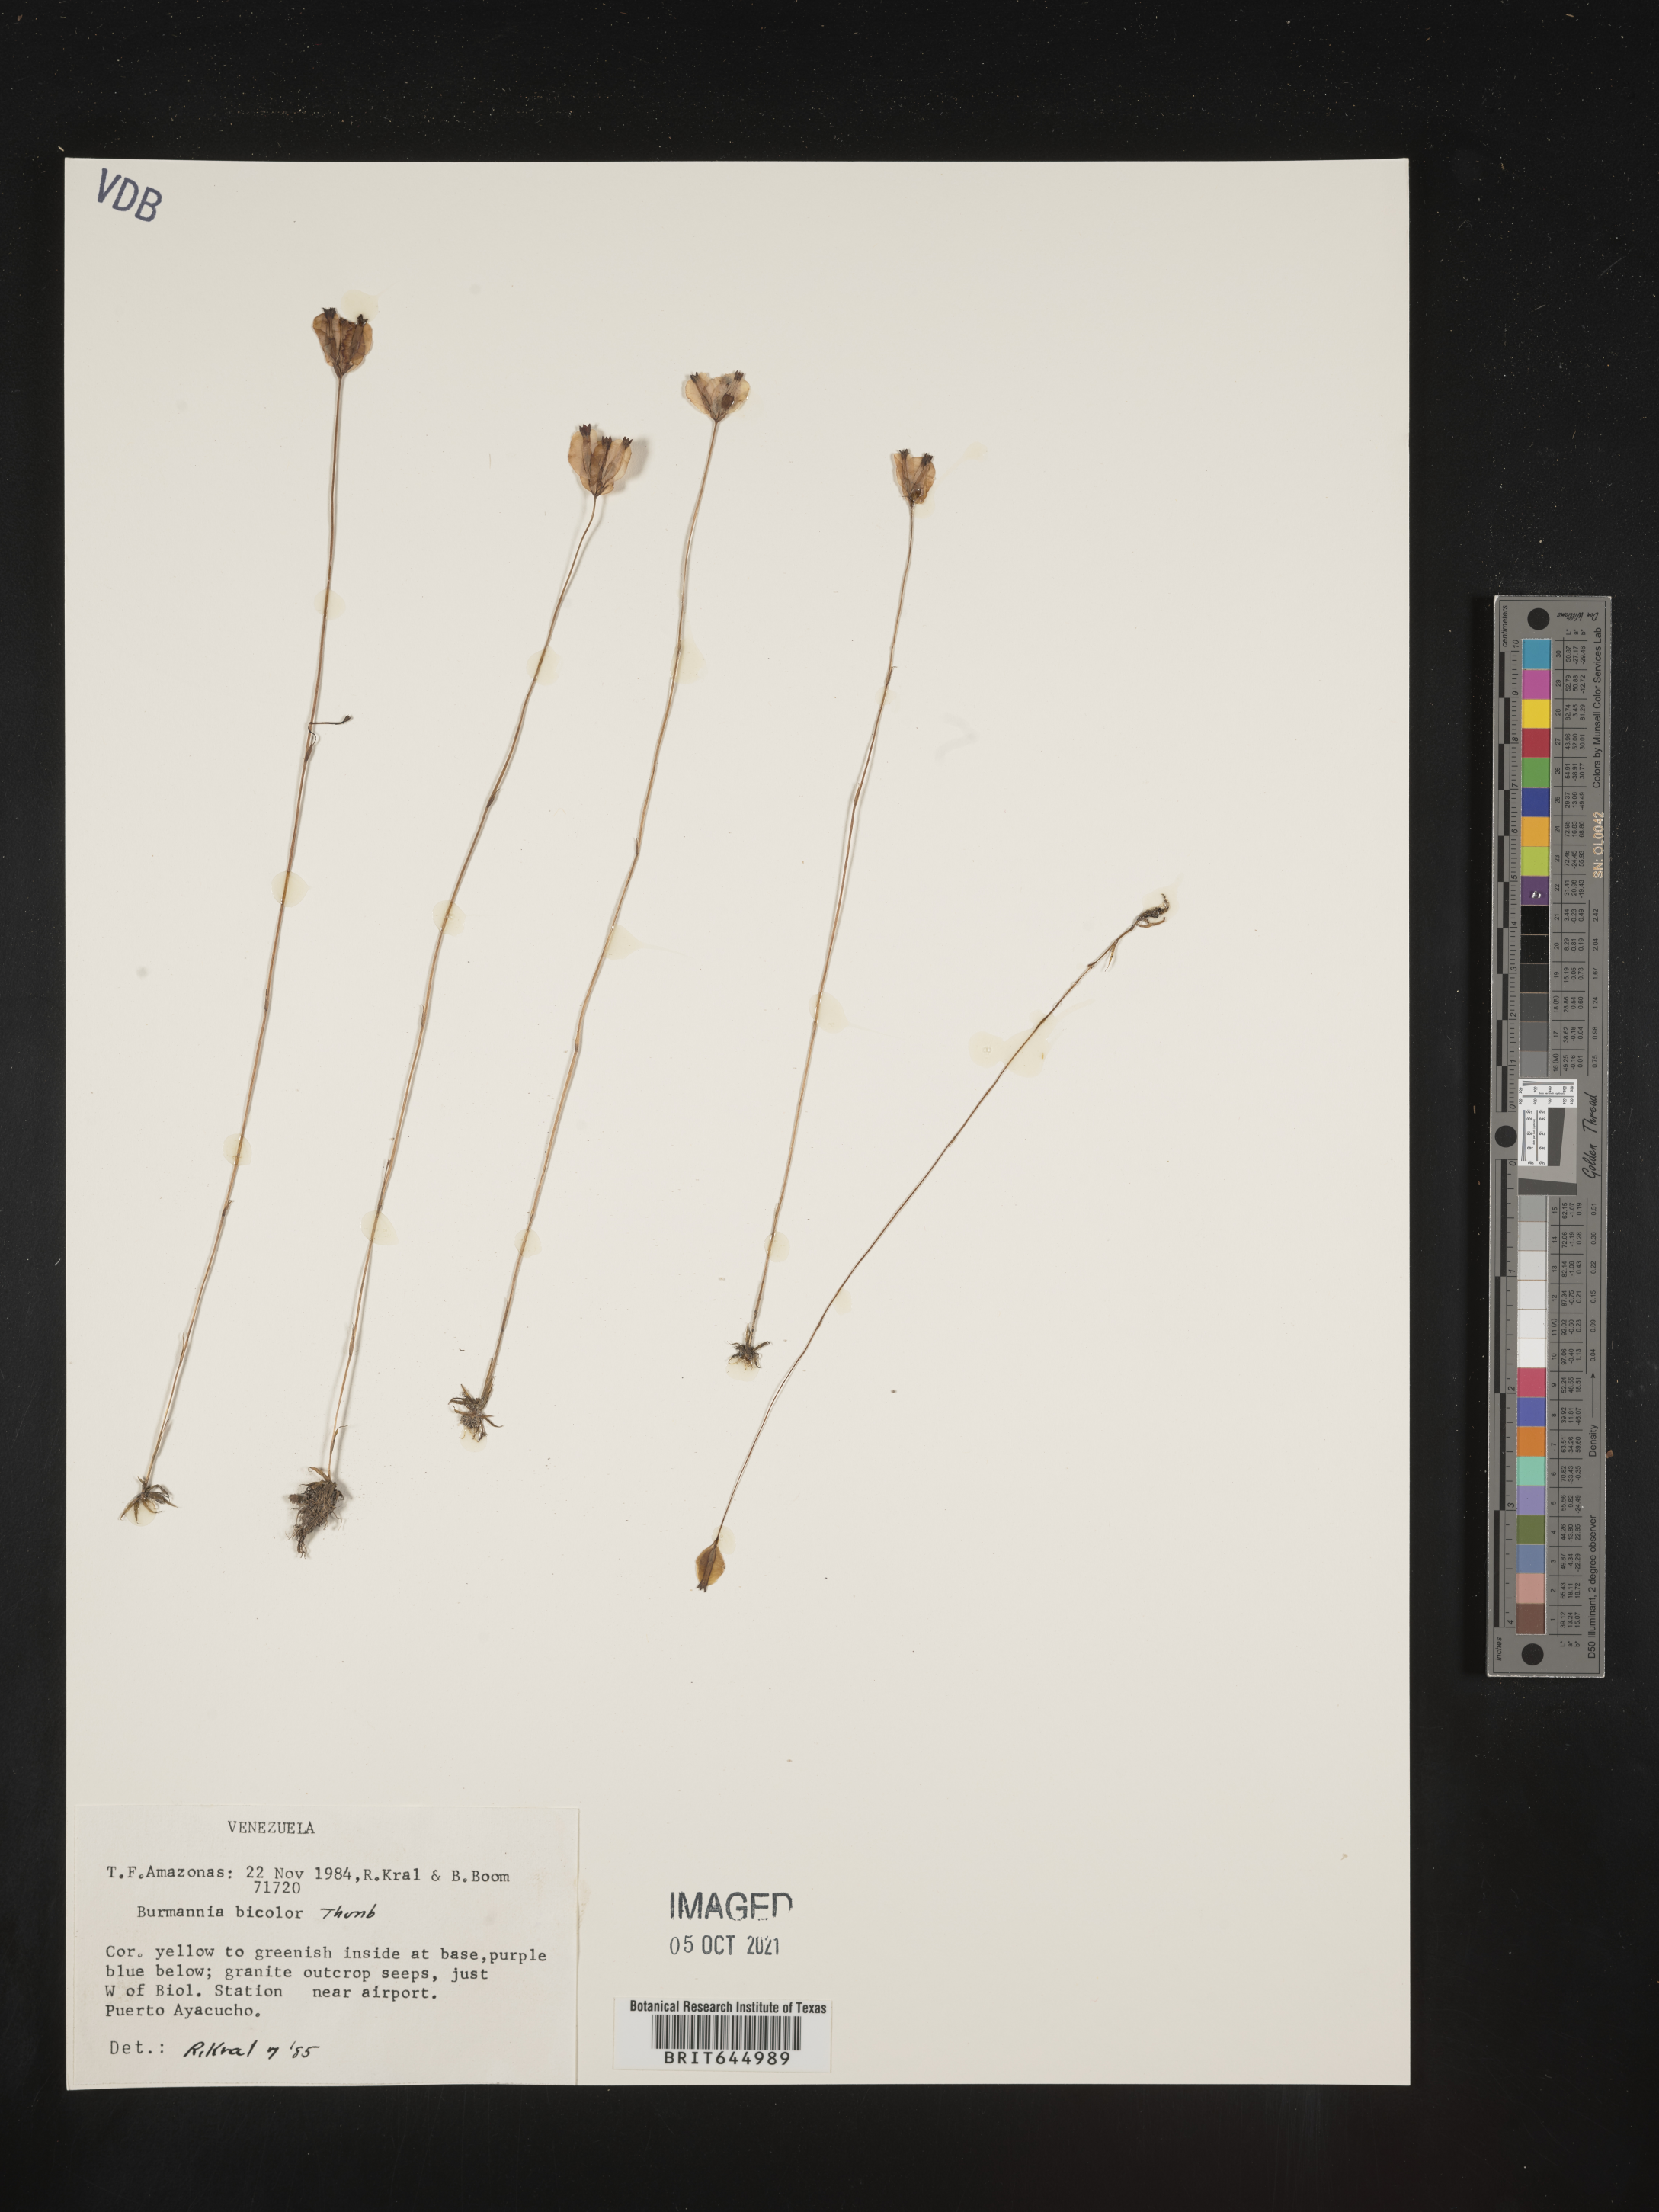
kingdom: Plantae
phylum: Tracheophyta
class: Liliopsida
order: Dioscoreales
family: Burmanniaceae
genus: Burmannia
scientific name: Burmannia bicolor
